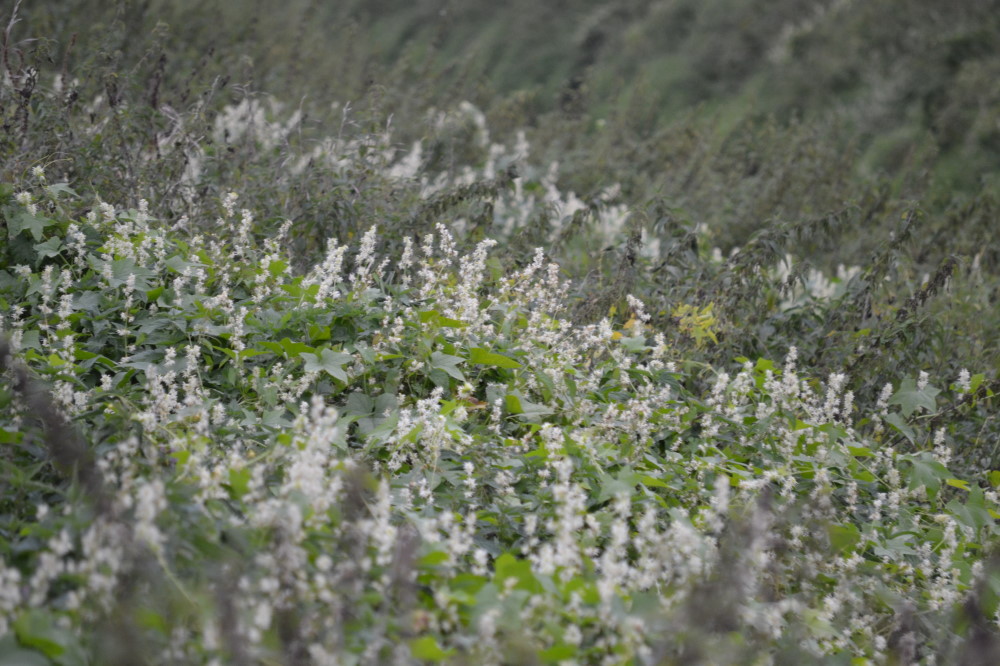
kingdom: Plantae
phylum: Tracheophyta
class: Magnoliopsida
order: Cucurbitales
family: Cucurbitaceae
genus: Echinocystis
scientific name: Echinocystis lobata
